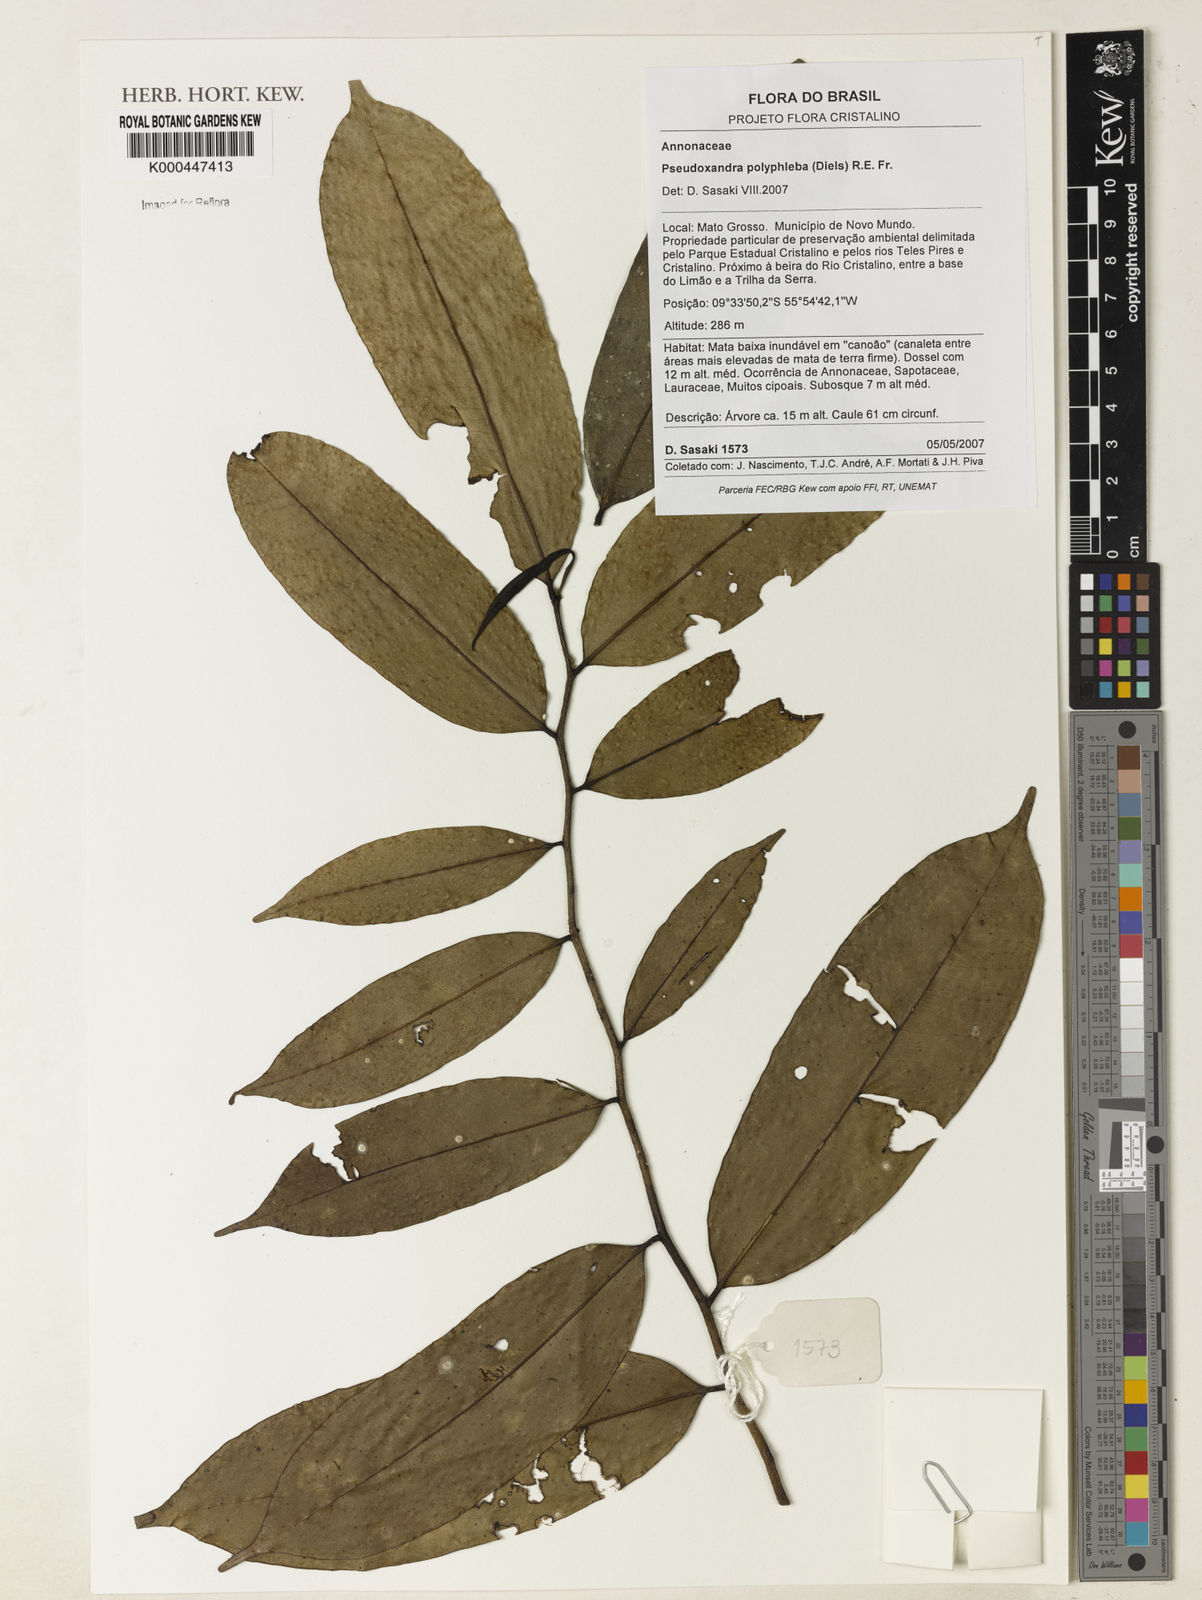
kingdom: Plantae
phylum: Tracheophyta
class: Magnoliopsida
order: Magnoliales
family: Annonaceae
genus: Pseudoxandra
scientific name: Pseudoxandra polyphleba
